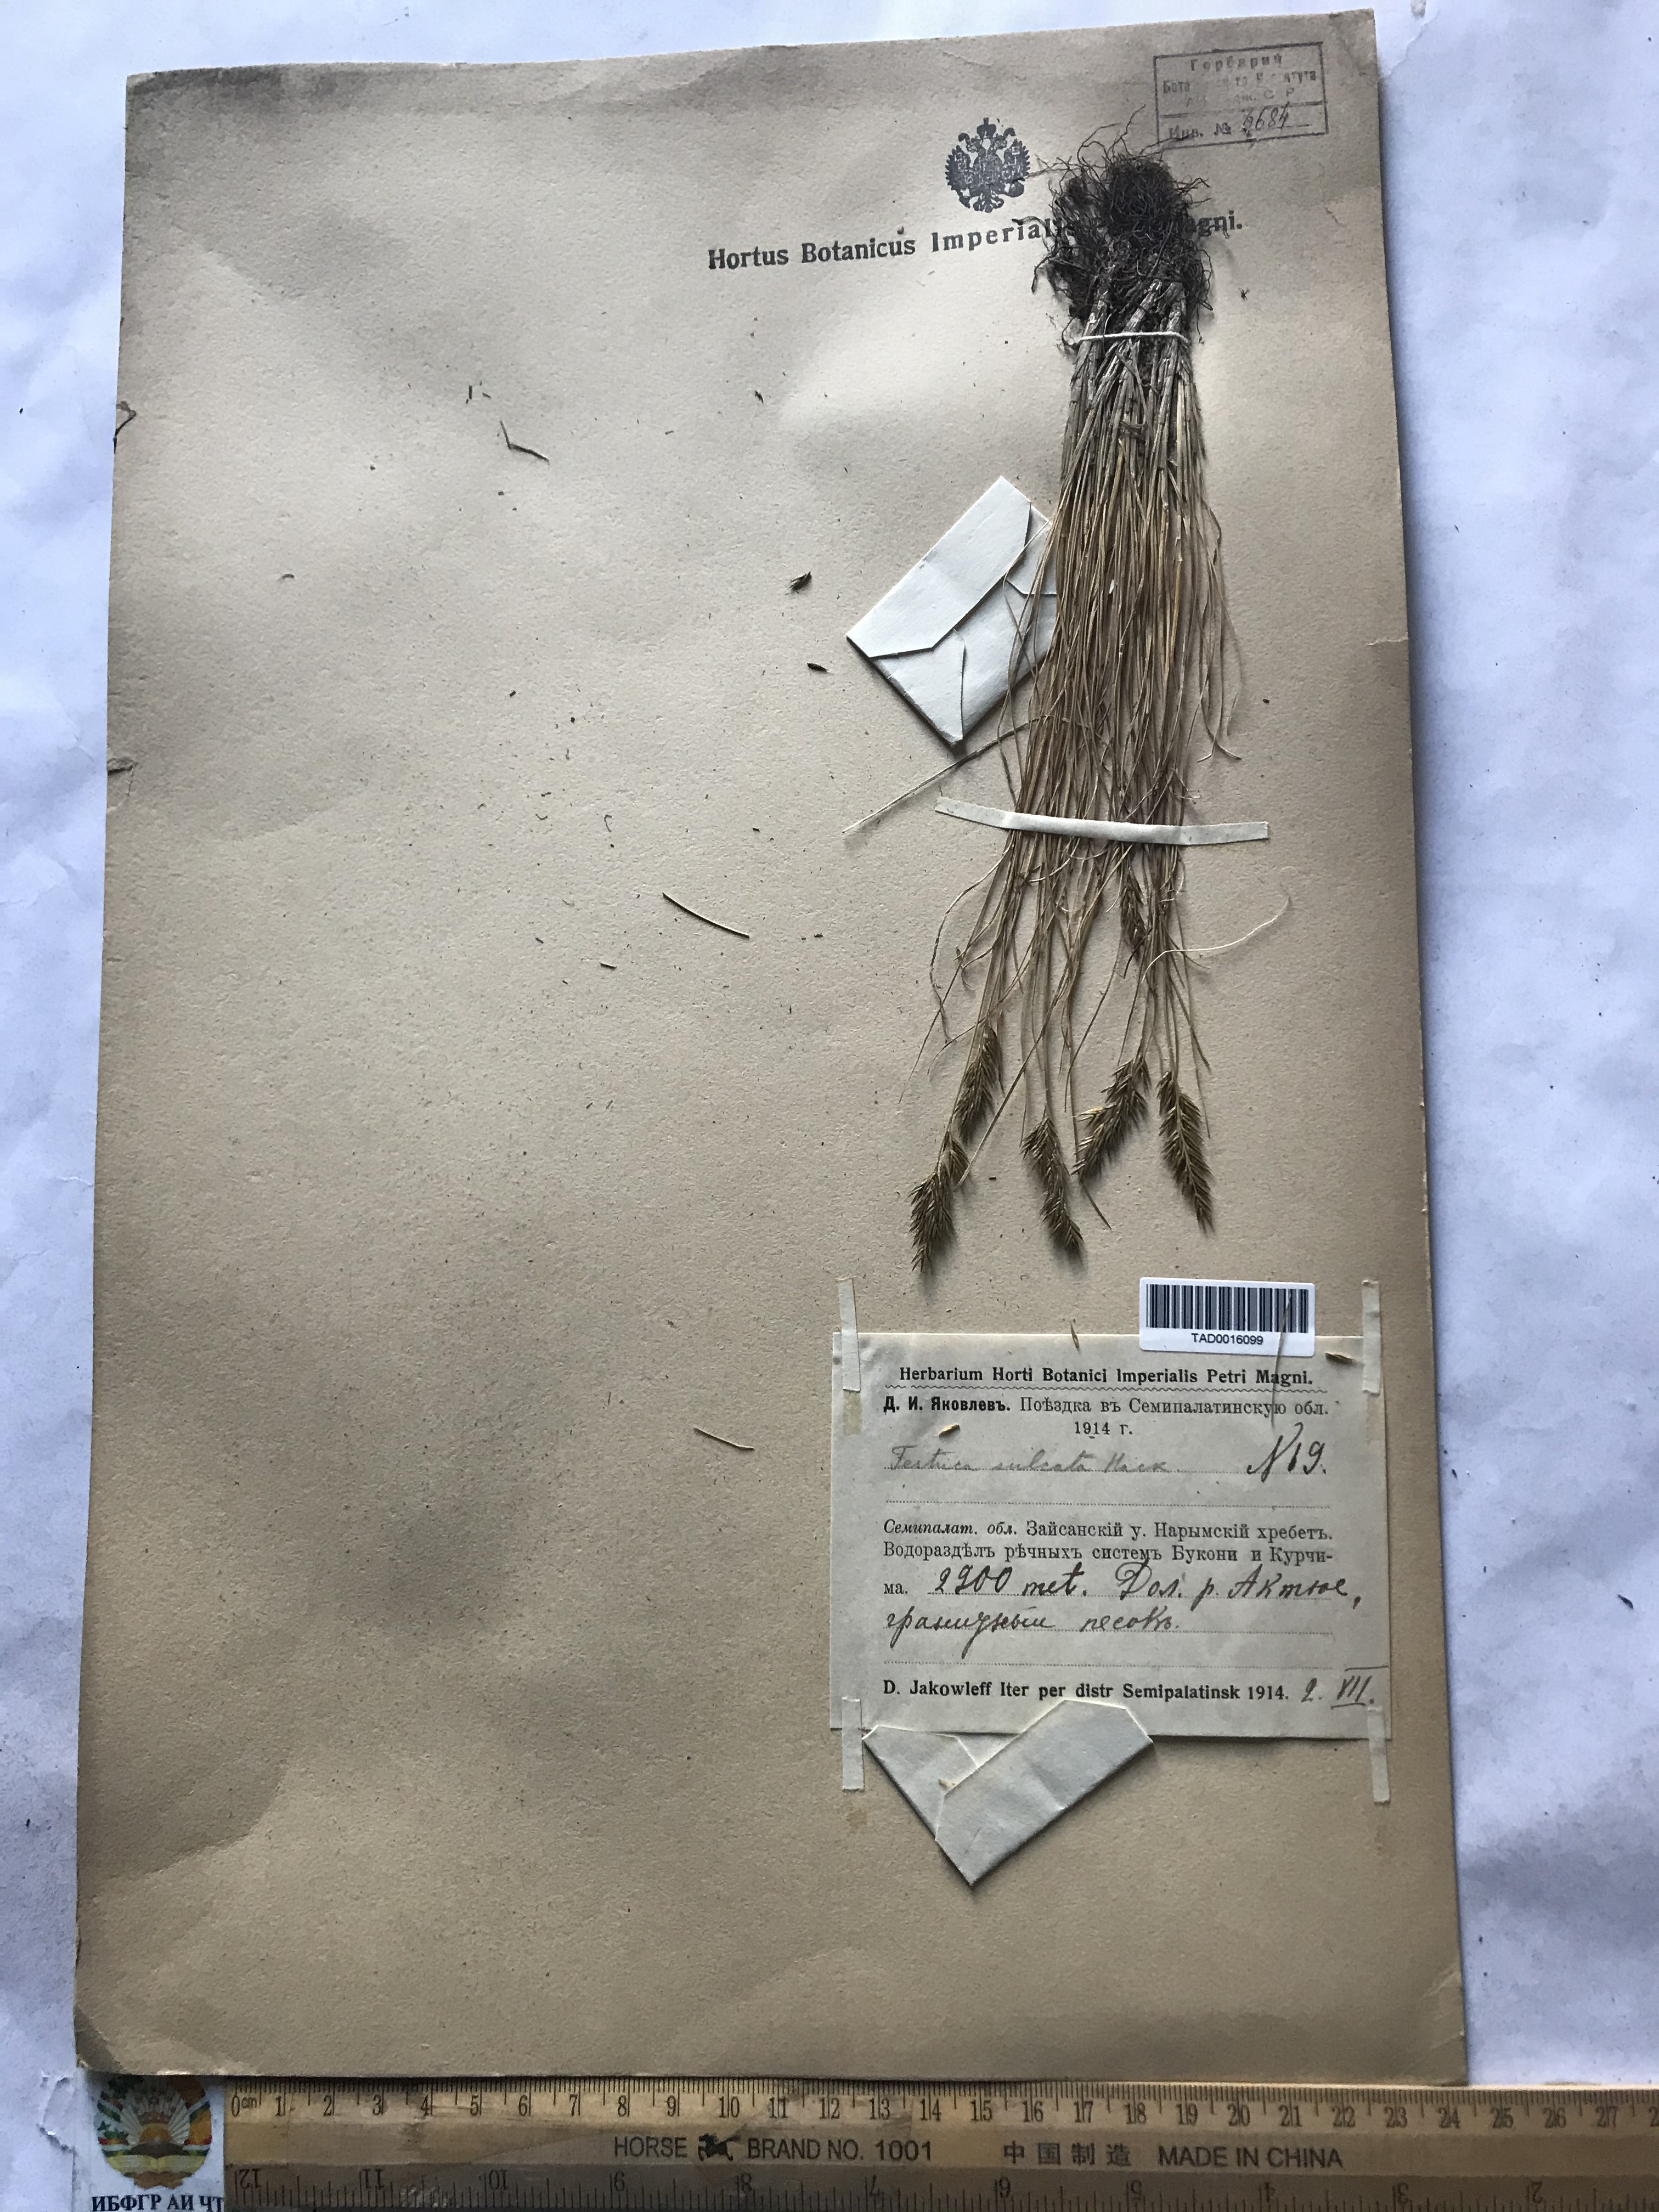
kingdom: Plantae
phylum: Tracheophyta
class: Liliopsida
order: Poales
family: Poaceae
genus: Festuca
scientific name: Festuca sulcata
